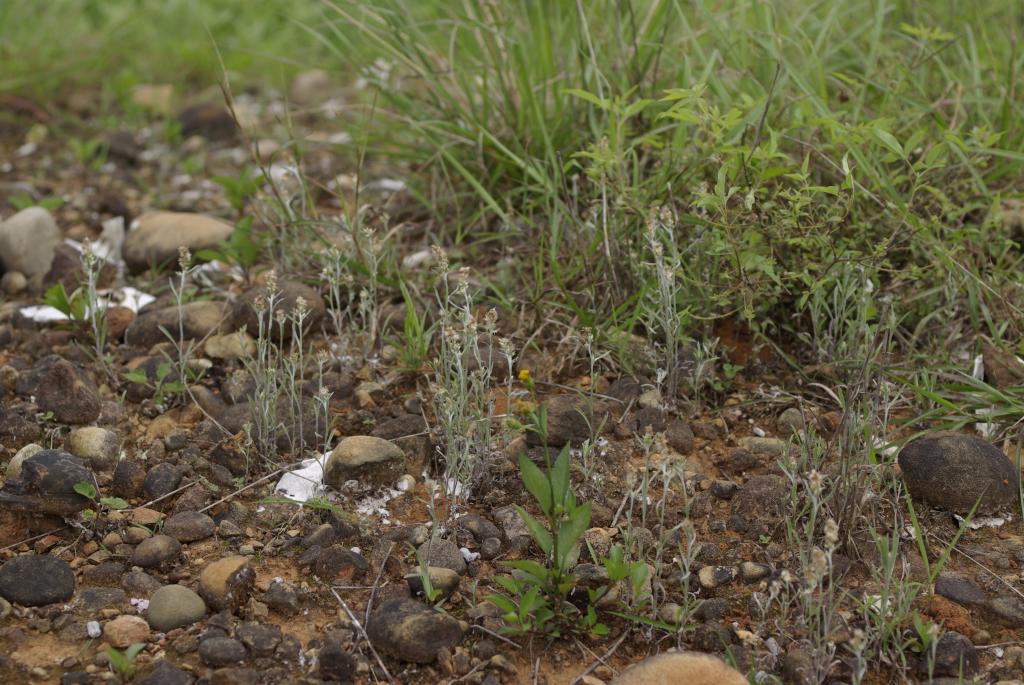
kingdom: Plantae
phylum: Tracheophyta
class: Magnoliopsida
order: Asterales
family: Asteraceae
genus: Gamochaeta
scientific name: Gamochaeta purpurea
